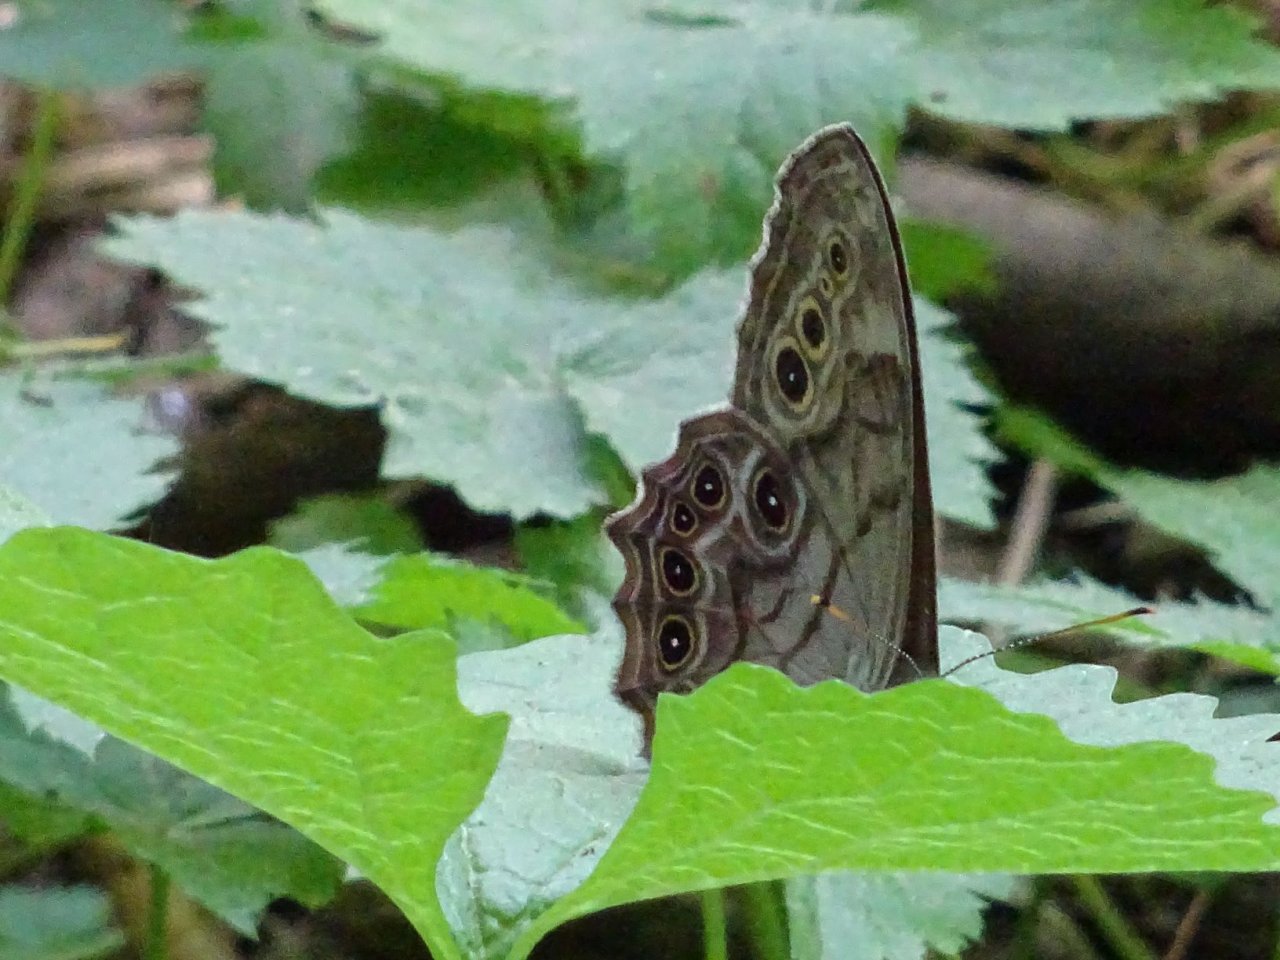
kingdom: Animalia
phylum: Arthropoda
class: Insecta
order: Lepidoptera
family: Nymphalidae
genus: Lethe
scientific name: Lethe anthedon
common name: Northern Pearly-Eye
